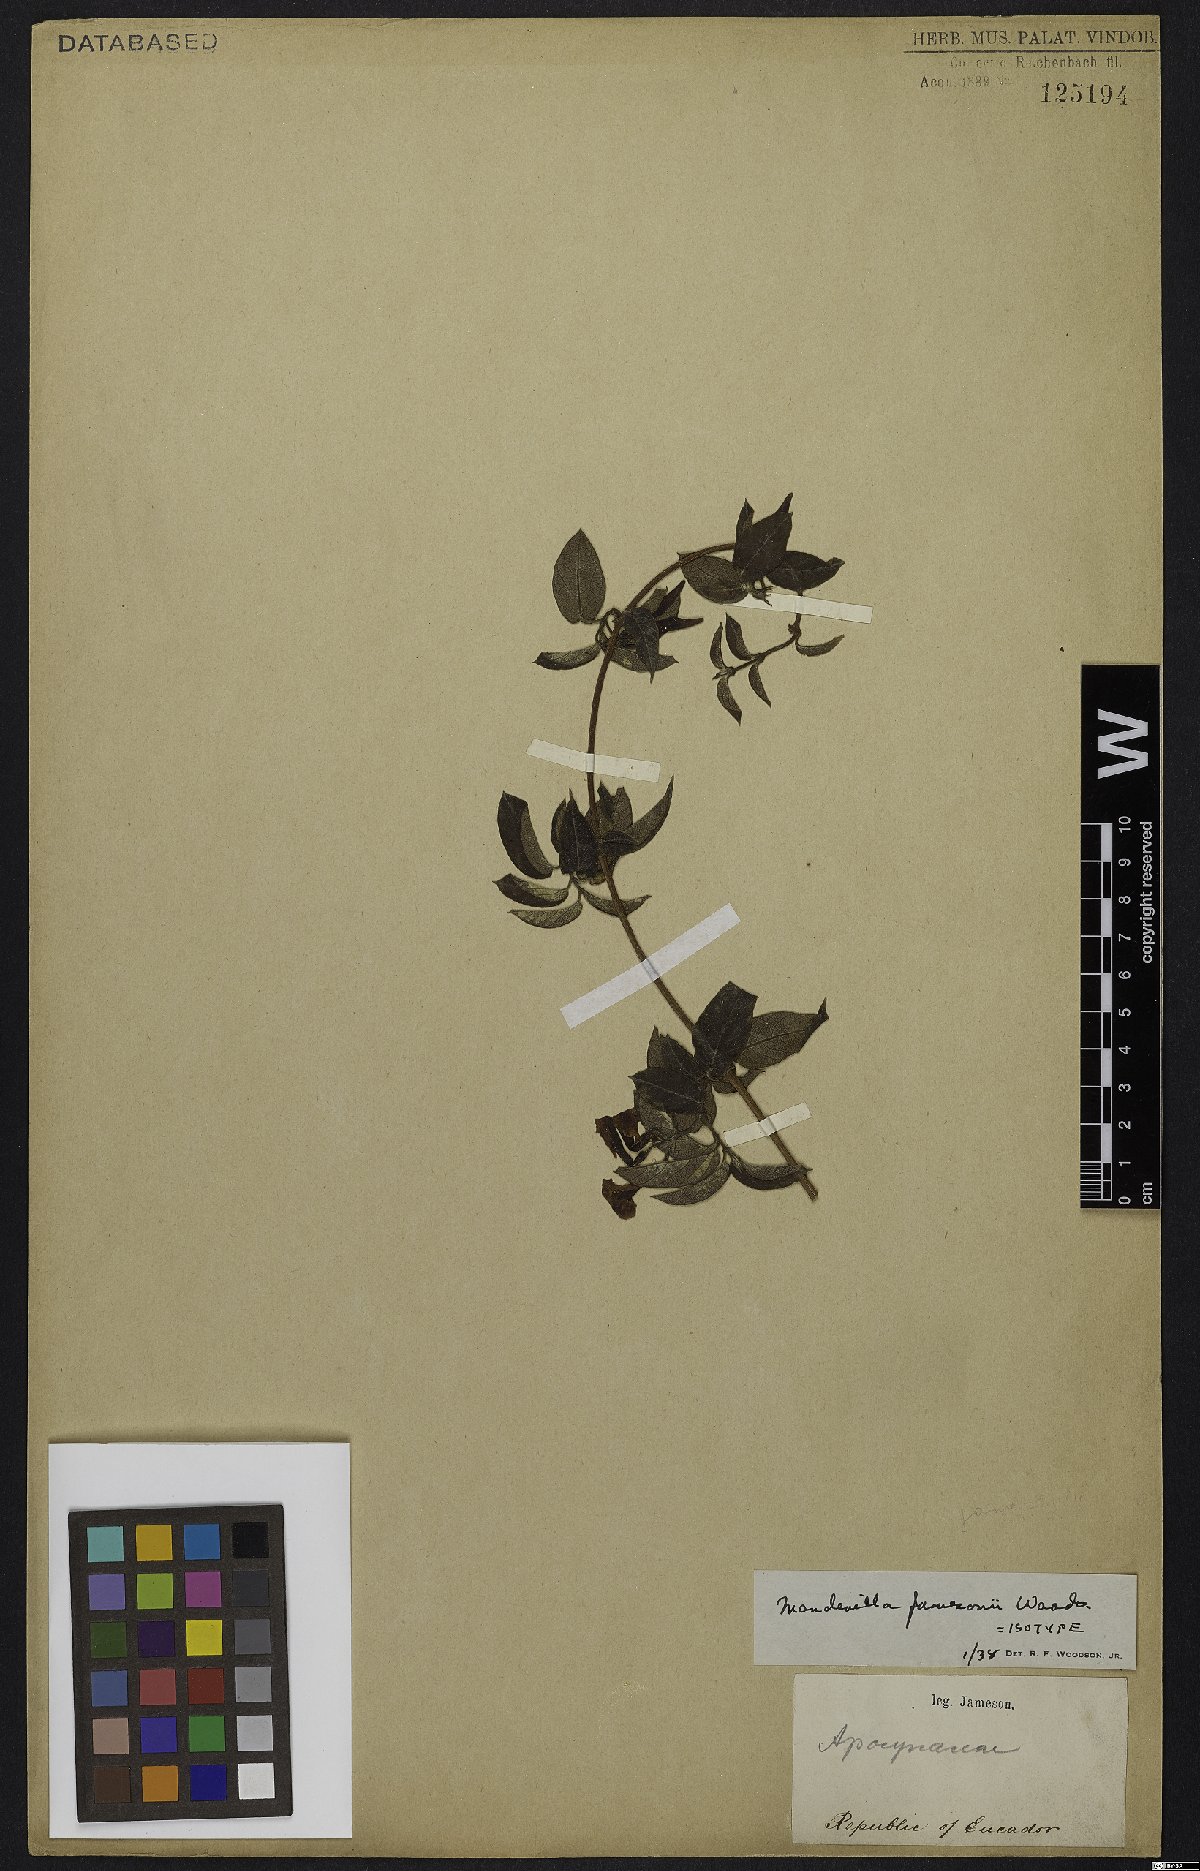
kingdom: Plantae
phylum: Tracheophyta
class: Magnoliopsida
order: Gentianales
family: Apocynaceae
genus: Mandevilla
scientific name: Mandevilla jamesonii
